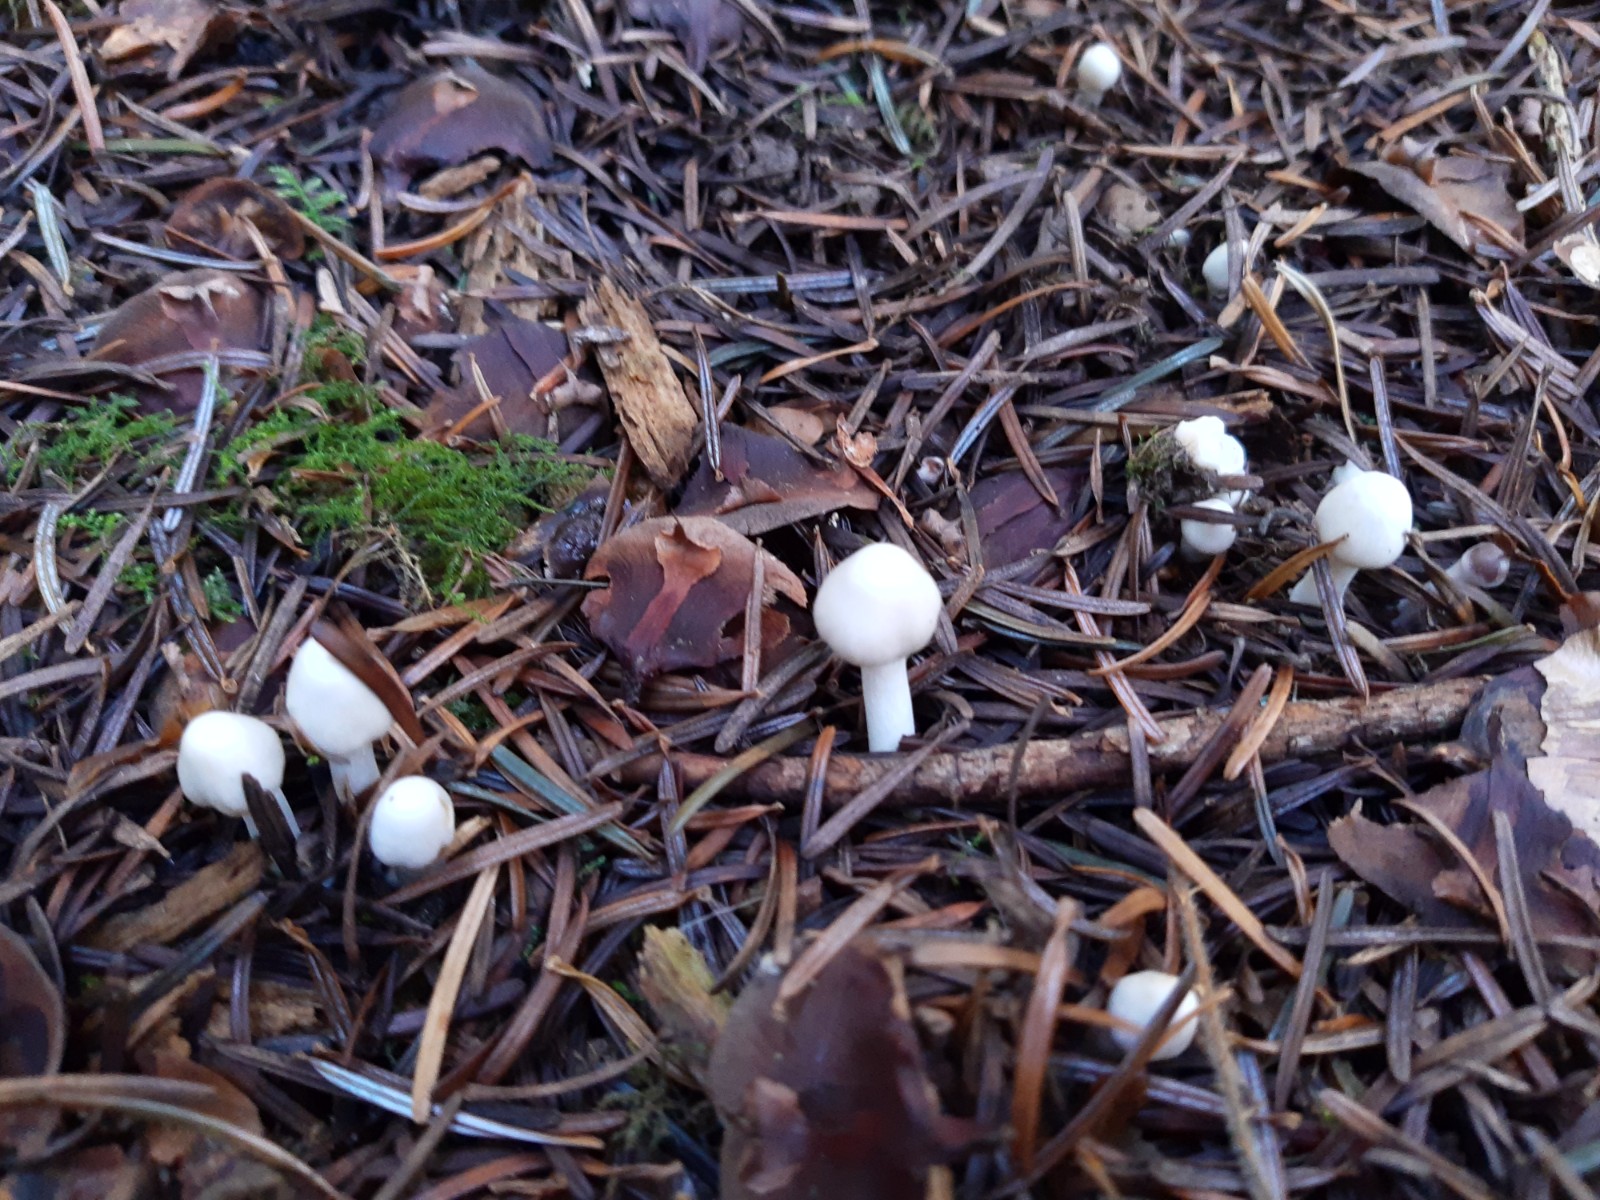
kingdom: Fungi
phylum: Basidiomycota
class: Agaricomycetes
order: Agaricales
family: Inocybaceae
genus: Inocybe
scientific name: Inocybe
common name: almindelig trævlhat
